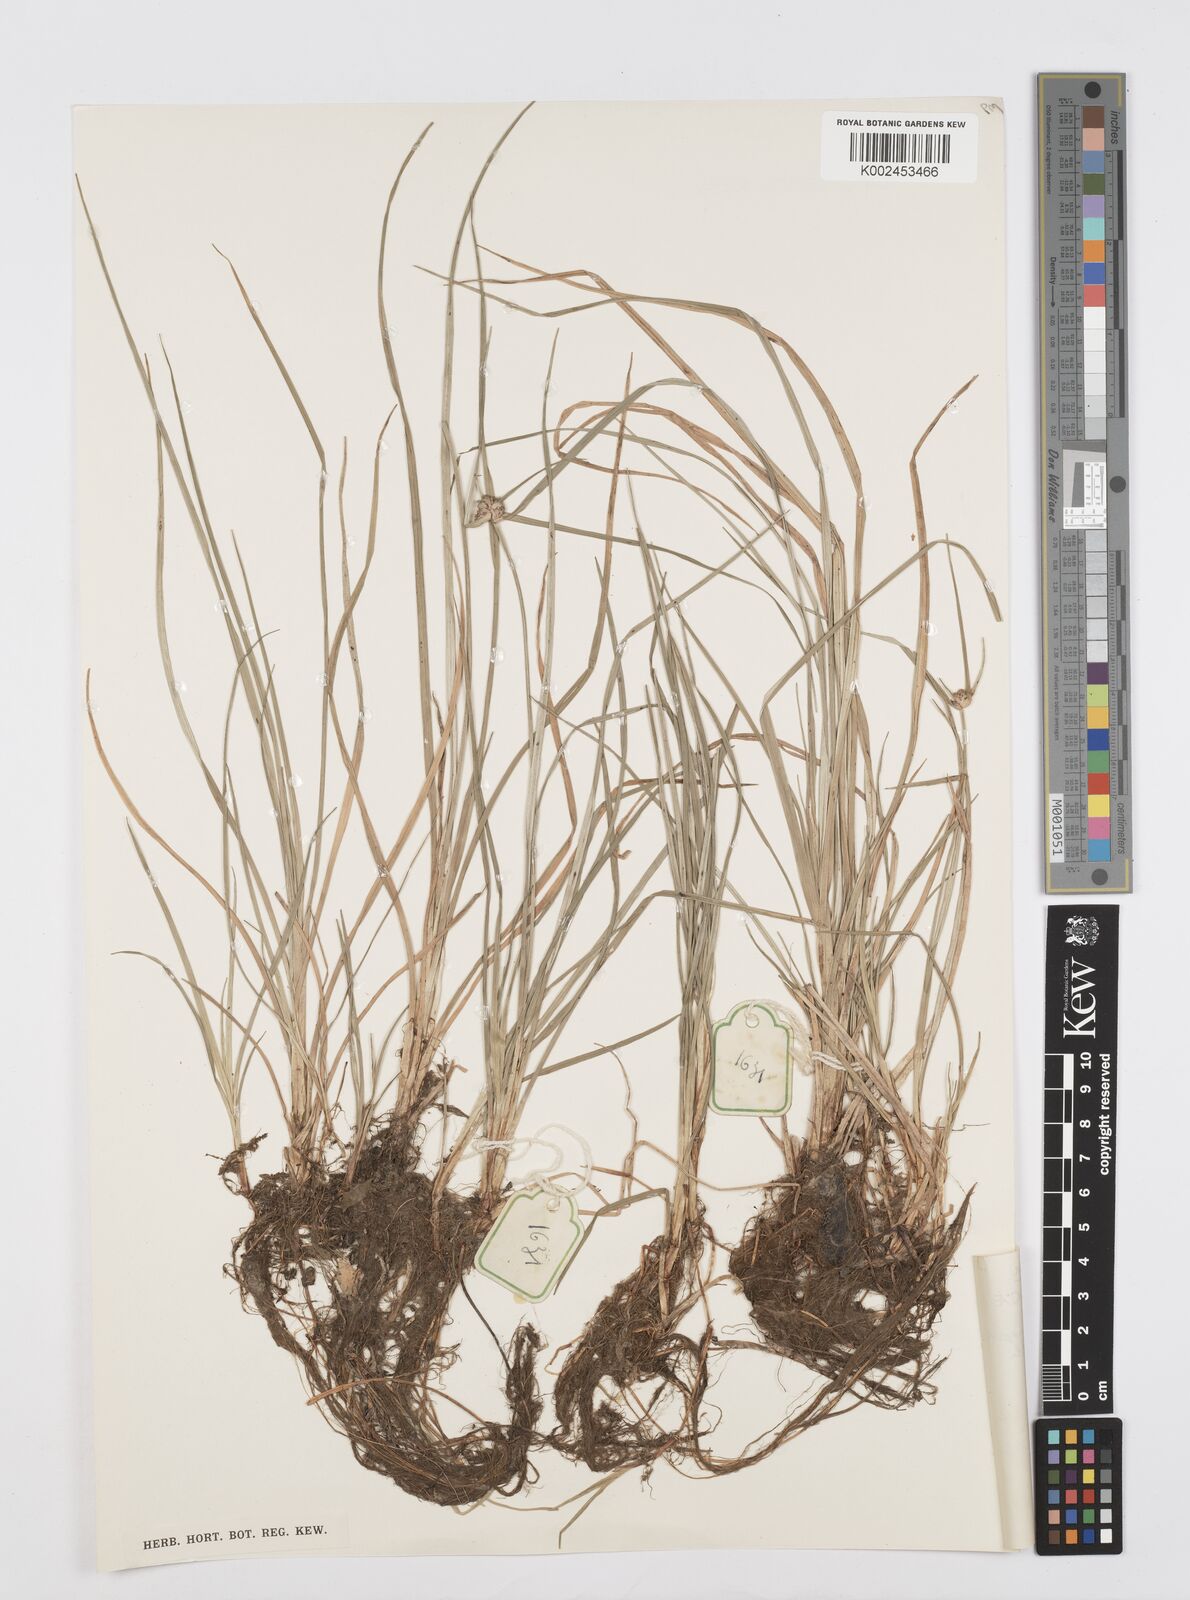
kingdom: Plantae
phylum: Tracheophyta
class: Liliopsida
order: Poales
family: Cyperaceae
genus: Cyperus
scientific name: Cyperus elegans
